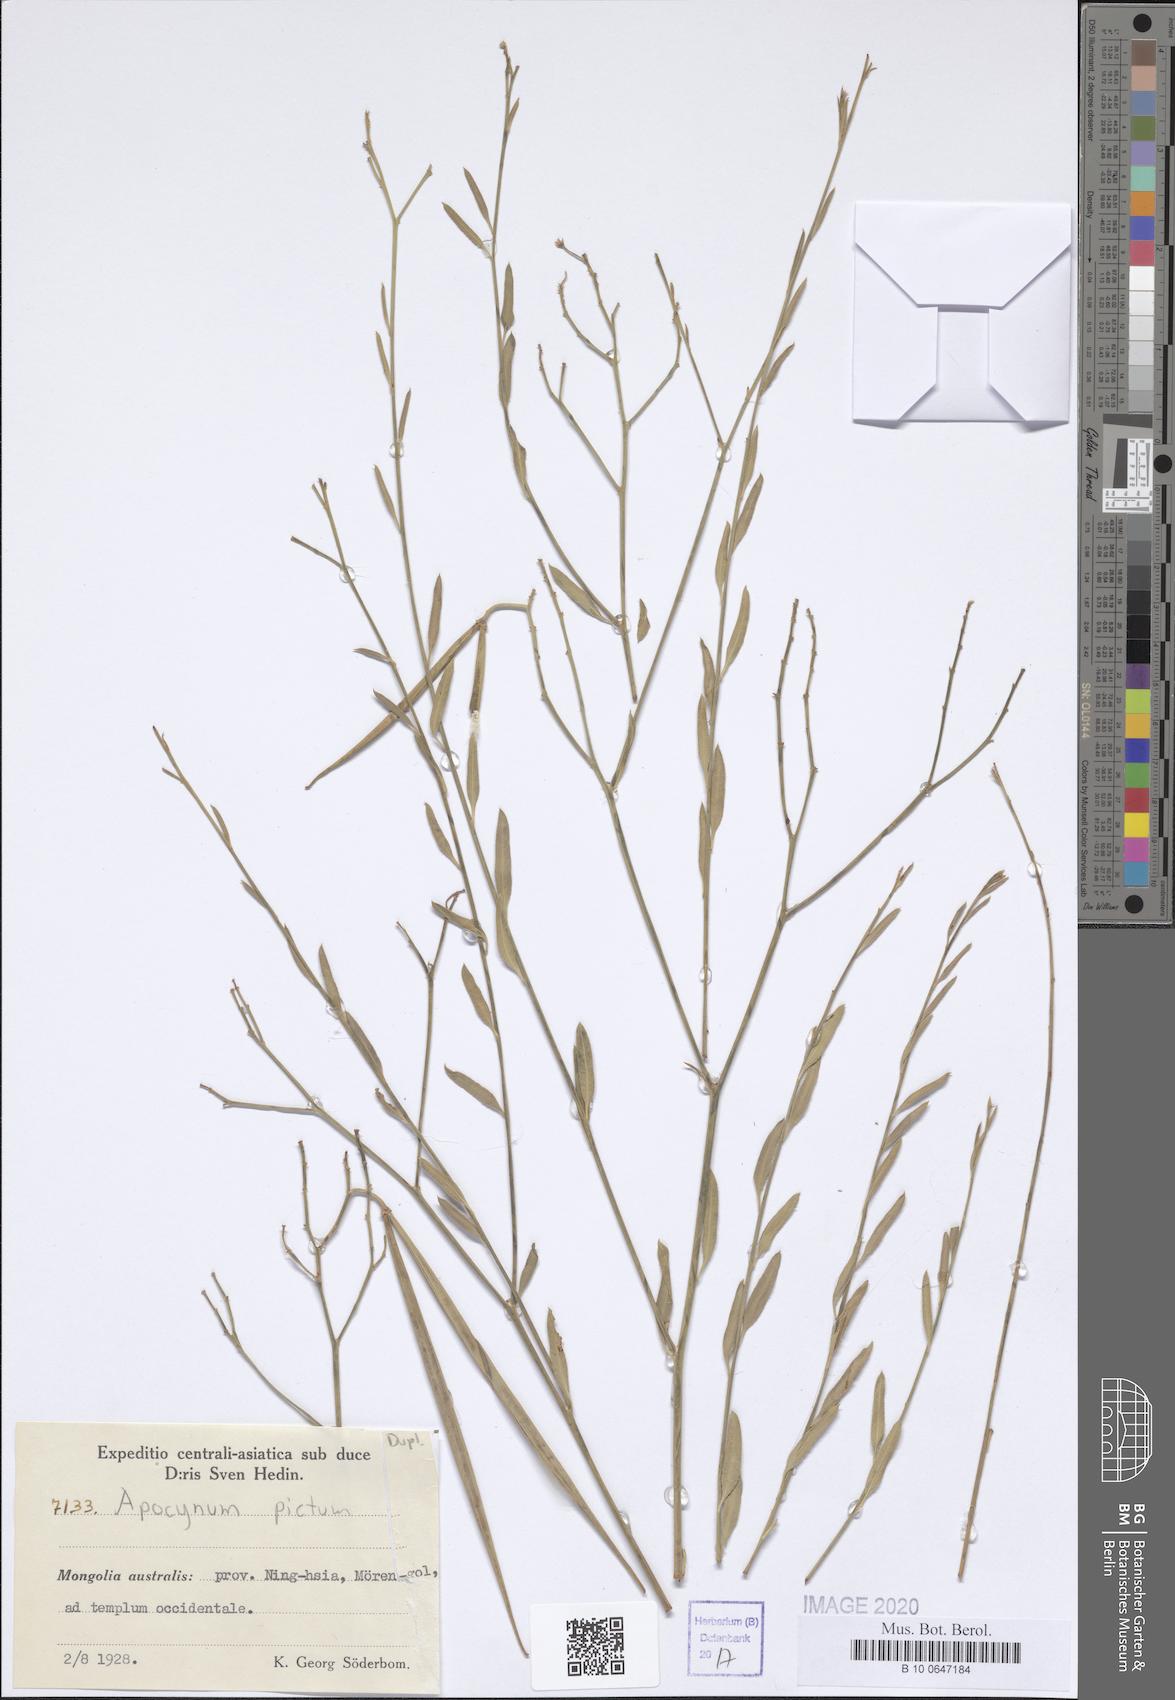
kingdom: Plantae
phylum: Tracheophyta
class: Magnoliopsida
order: Gentianales
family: Apocynaceae
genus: Poacynum
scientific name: Poacynum pictum
